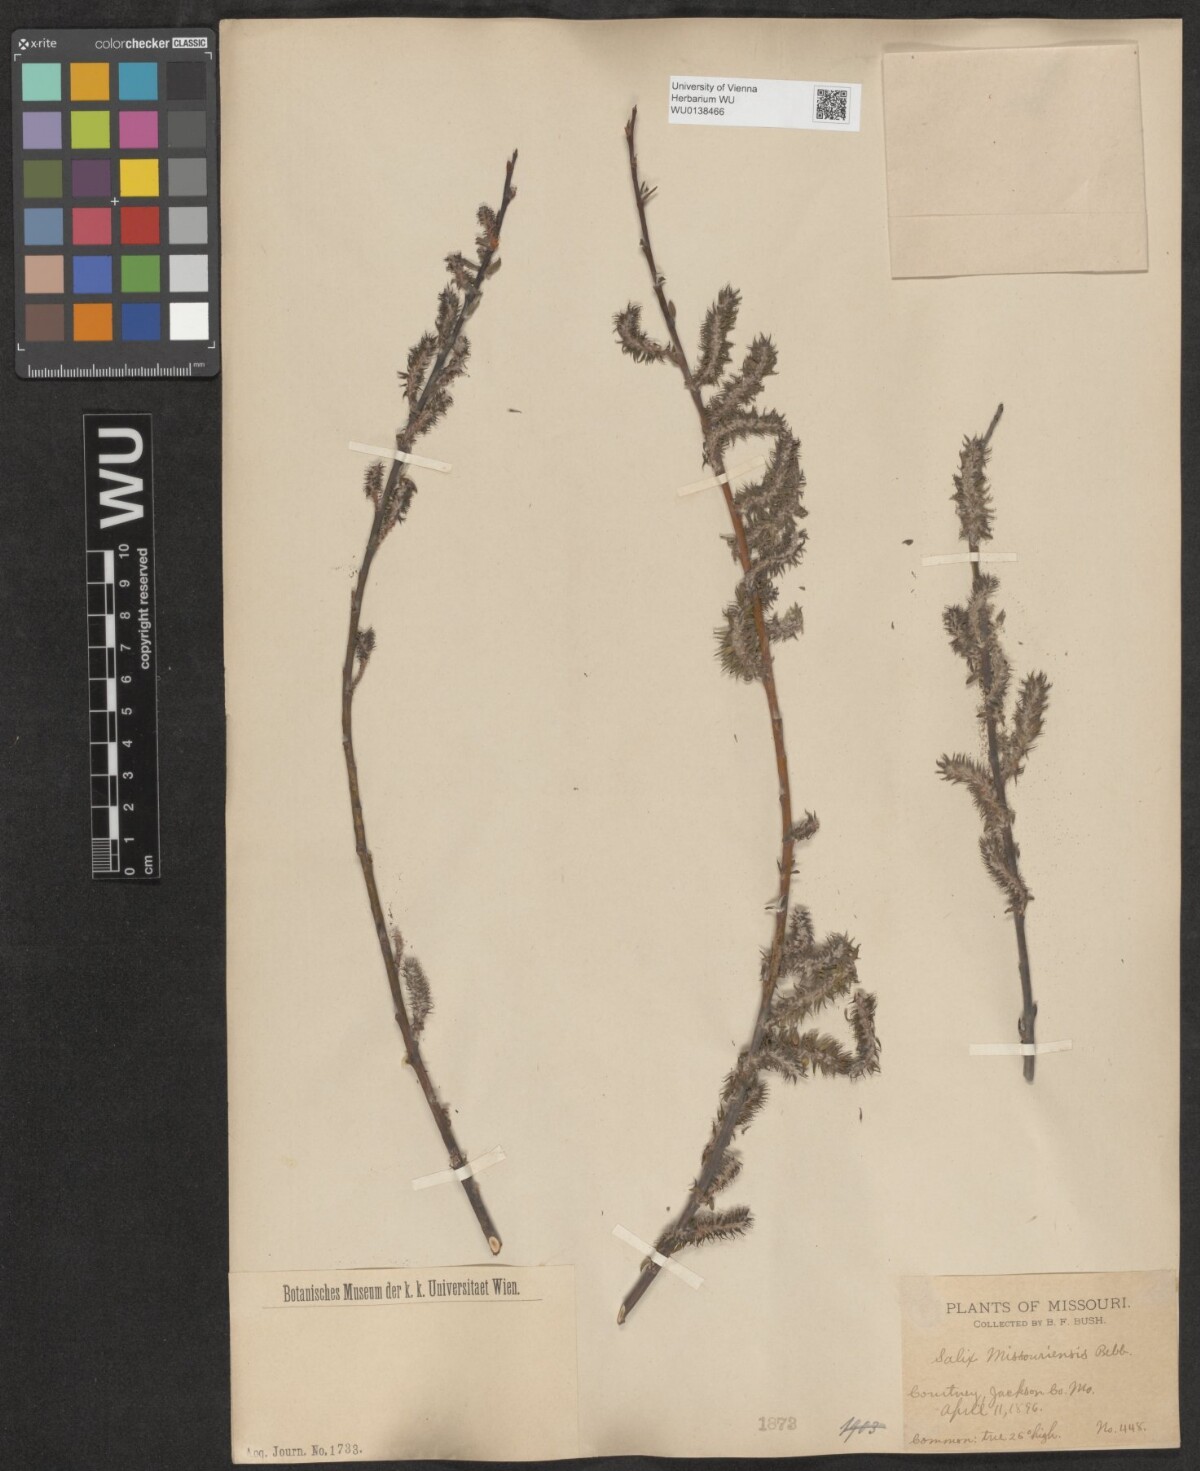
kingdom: Plantae
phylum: Tracheophyta
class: Magnoliopsida
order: Malpighiales
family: Salicaceae
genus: Salix
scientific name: Salix eriocephala
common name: Heart-leaved willow
